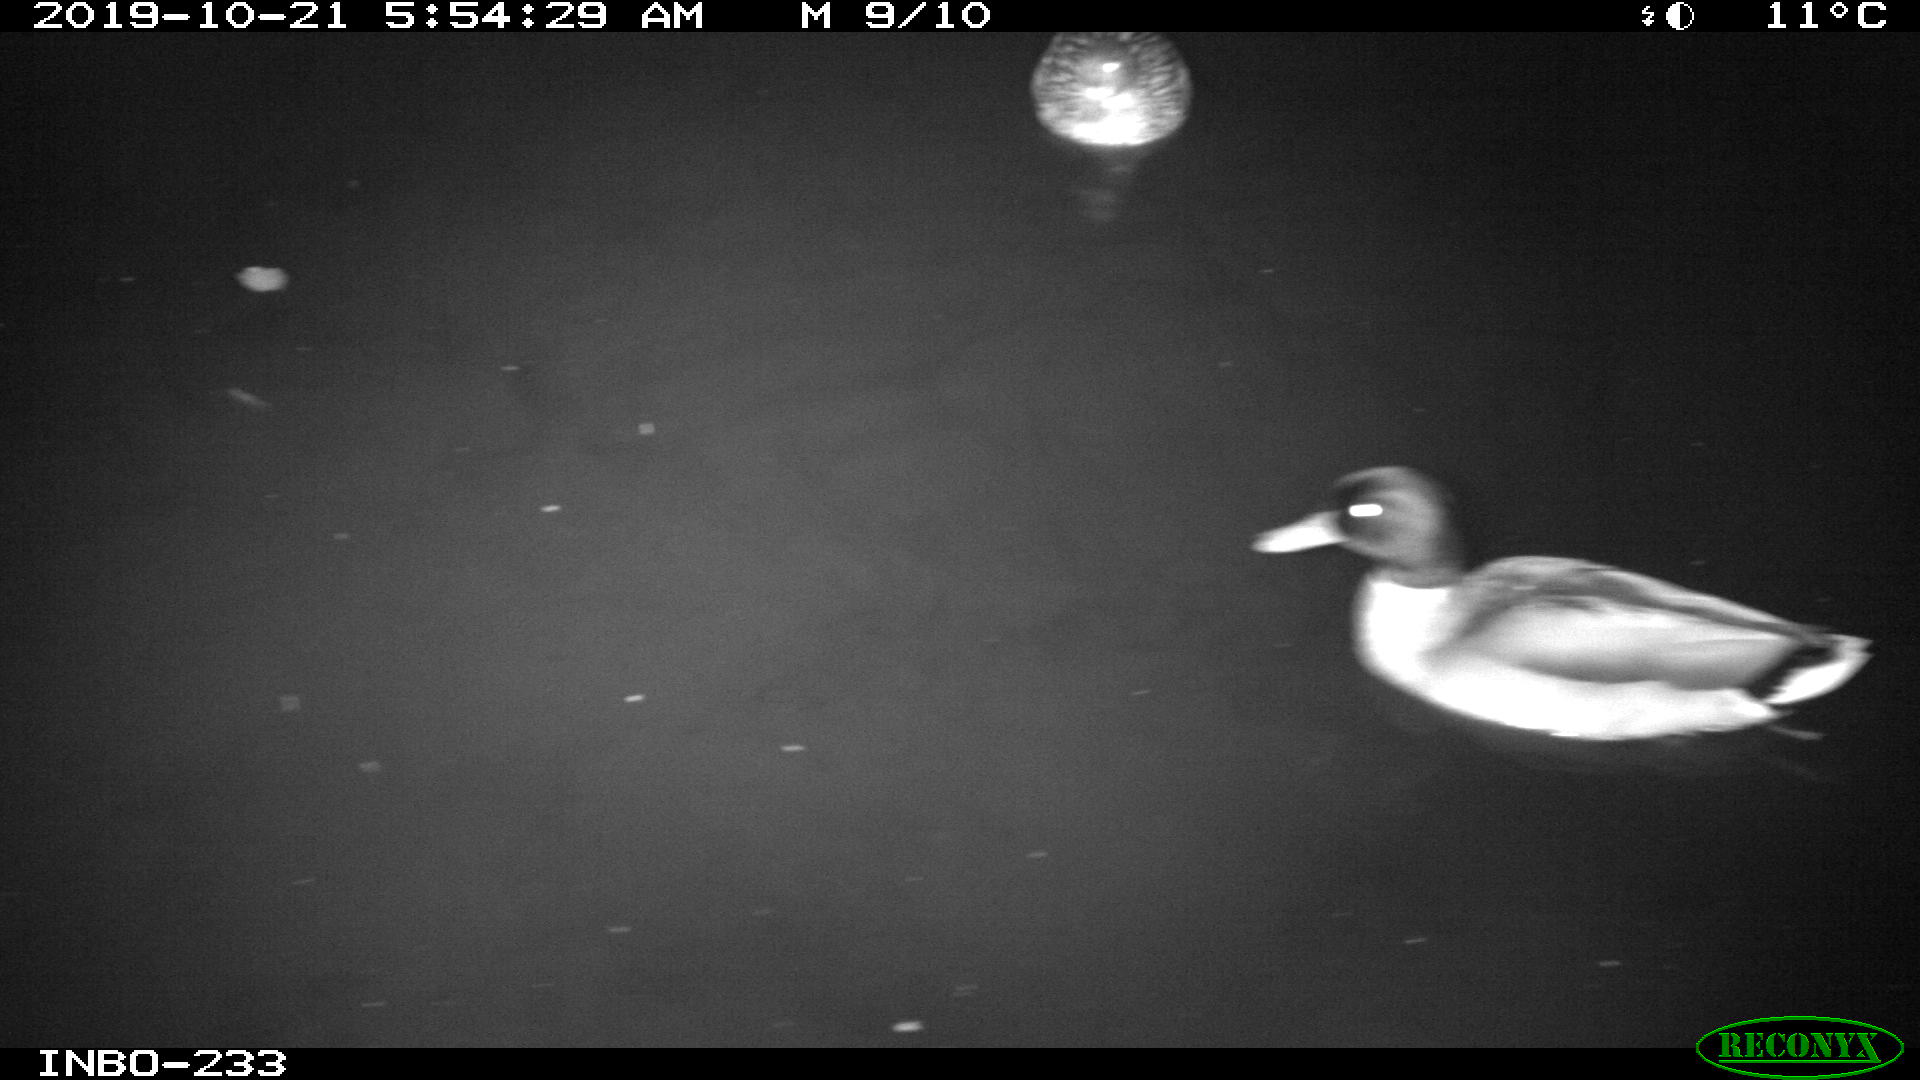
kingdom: Animalia
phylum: Chordata
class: Aves
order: Anseriformes
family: Anatidae
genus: Anas
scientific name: Anas platyrhynchos
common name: Mallard
